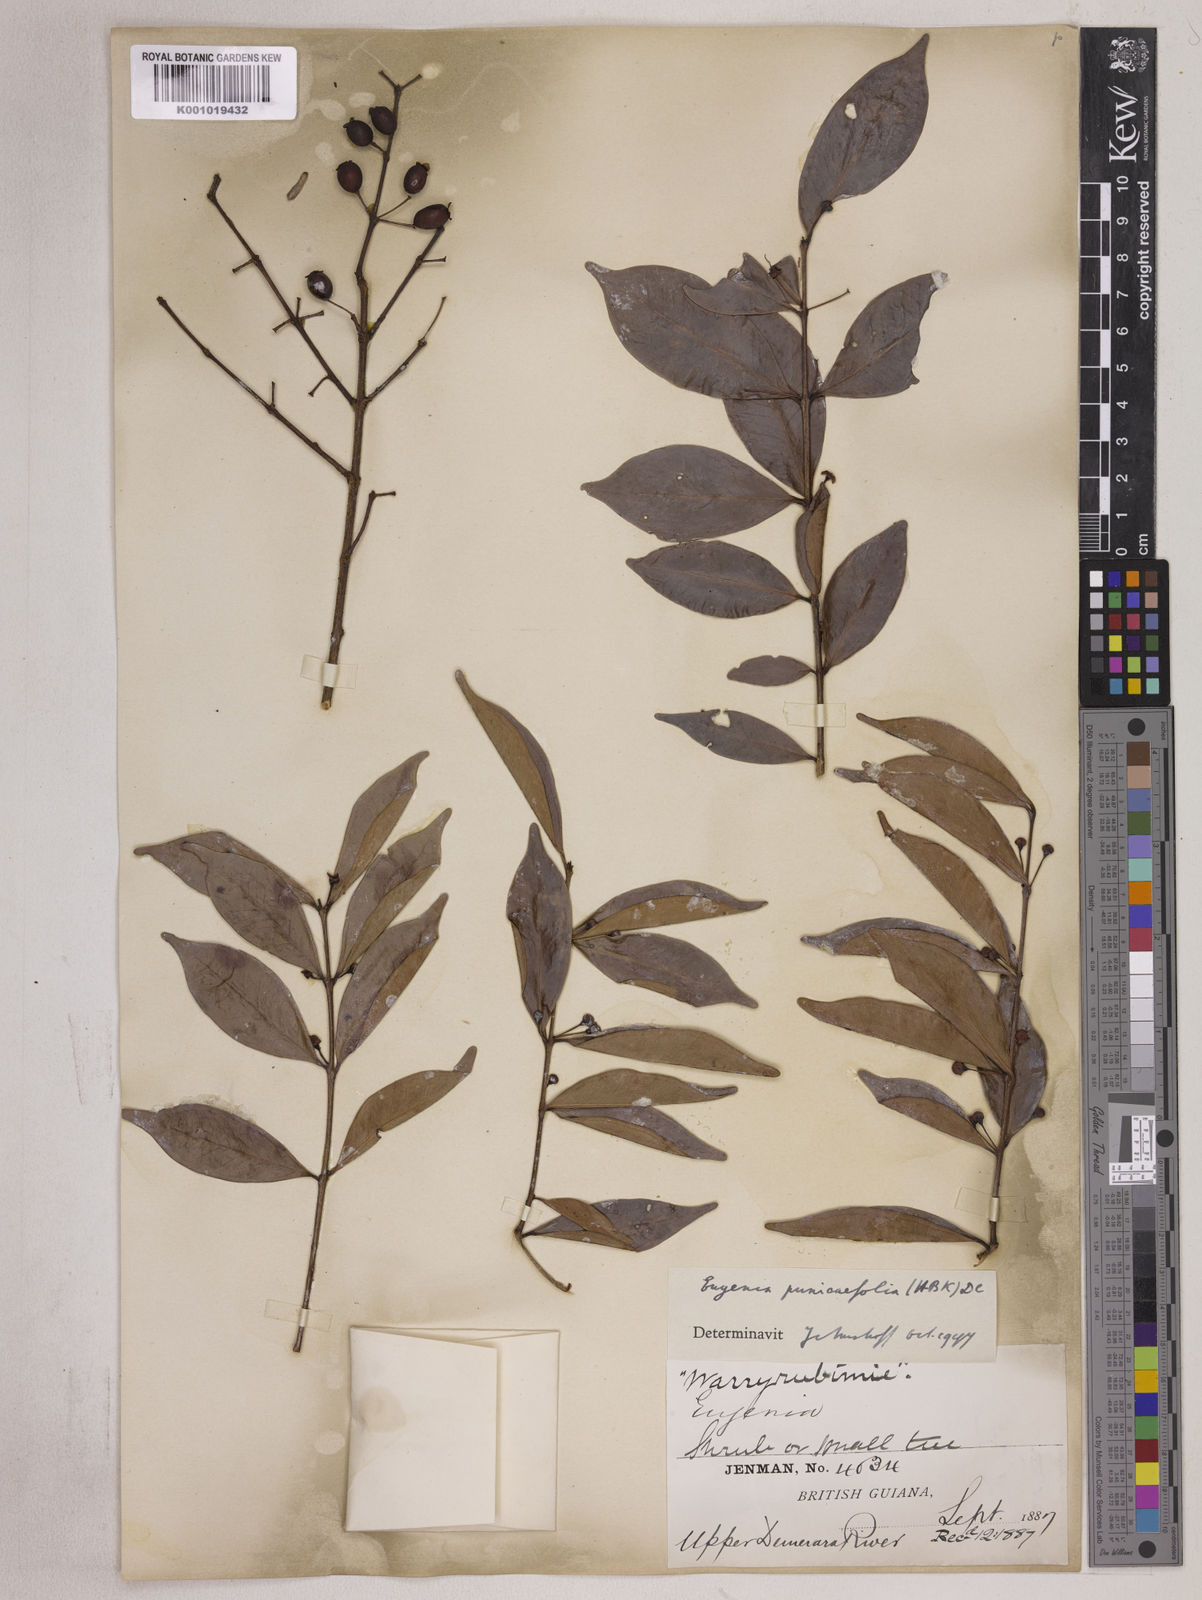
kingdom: Plantae
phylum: Tracheophyta
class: Magnoliopsida
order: Myrtales
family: Myrtaceae
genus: Eugenia
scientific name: Eugenia punicifolia
